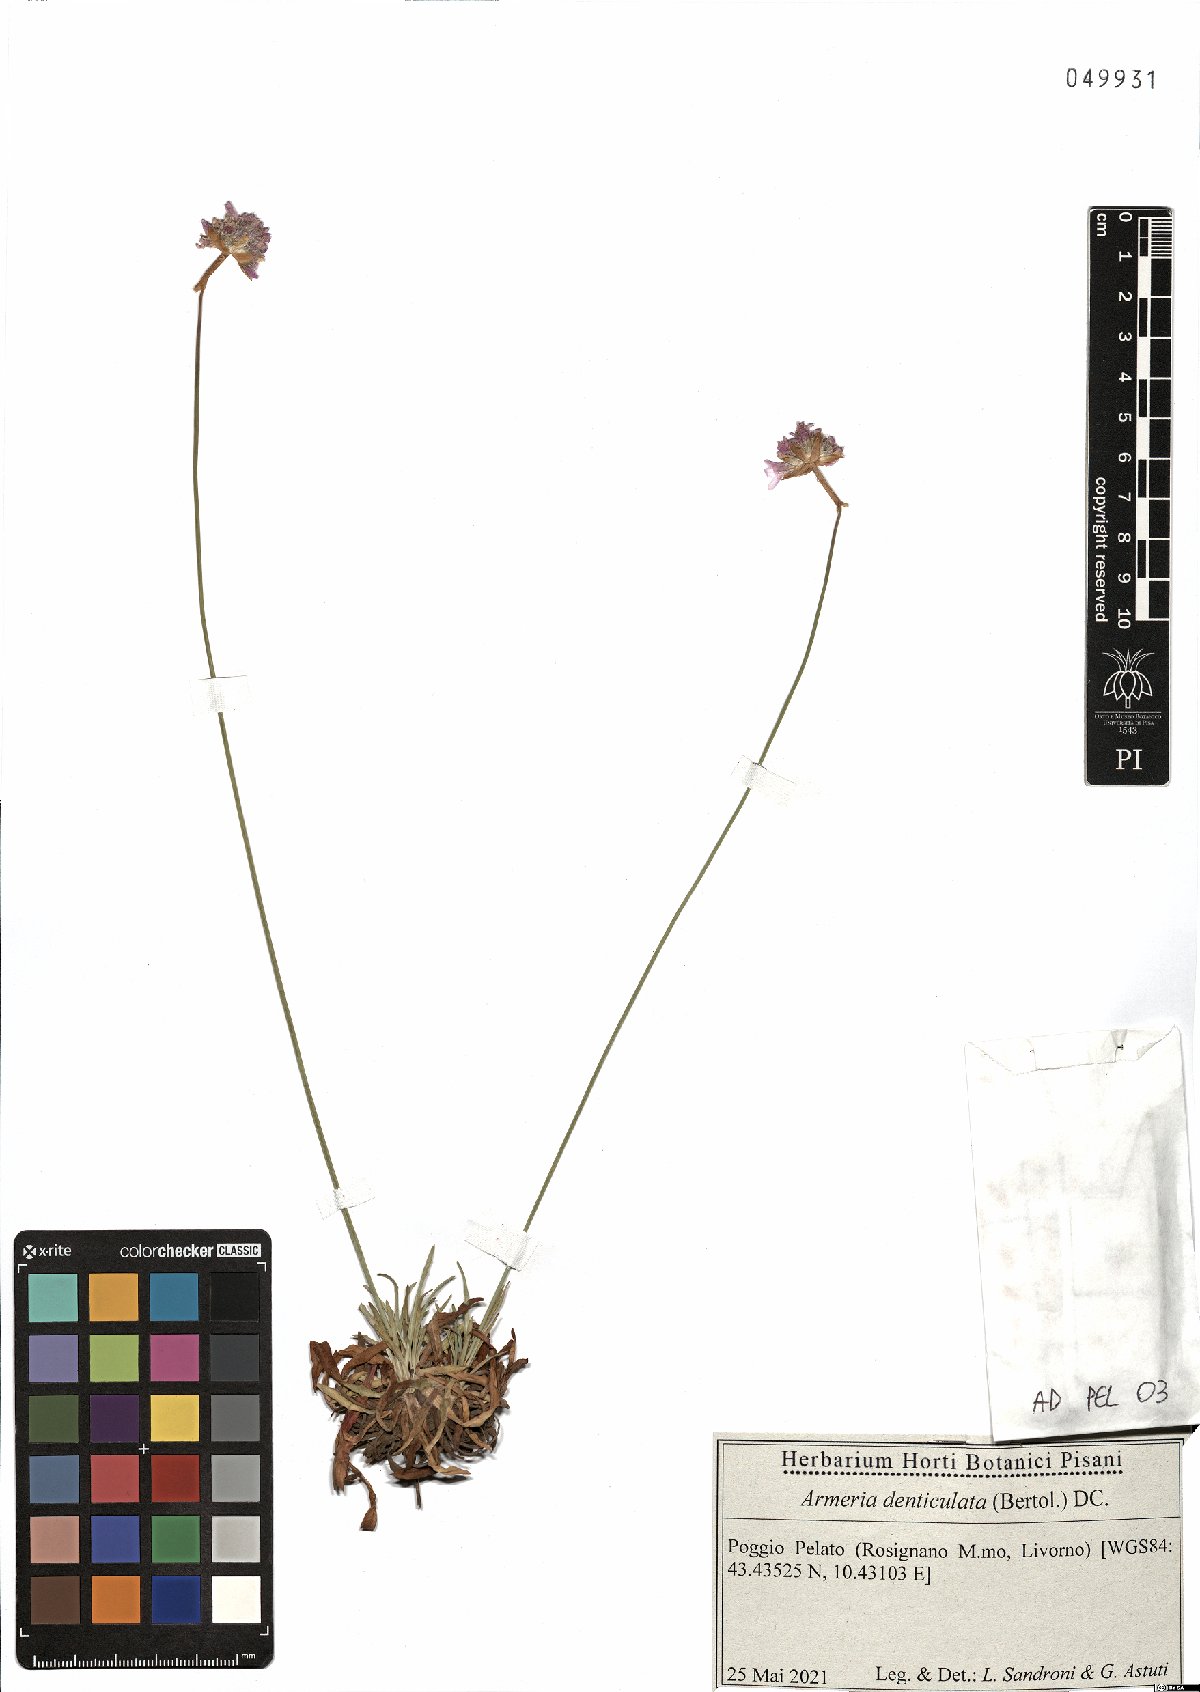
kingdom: Plantae
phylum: Tracheophyta
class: Magnoliopsida
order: Caryophyllales
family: Plumbaginaceae
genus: Armeria
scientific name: Armeria denticulata
